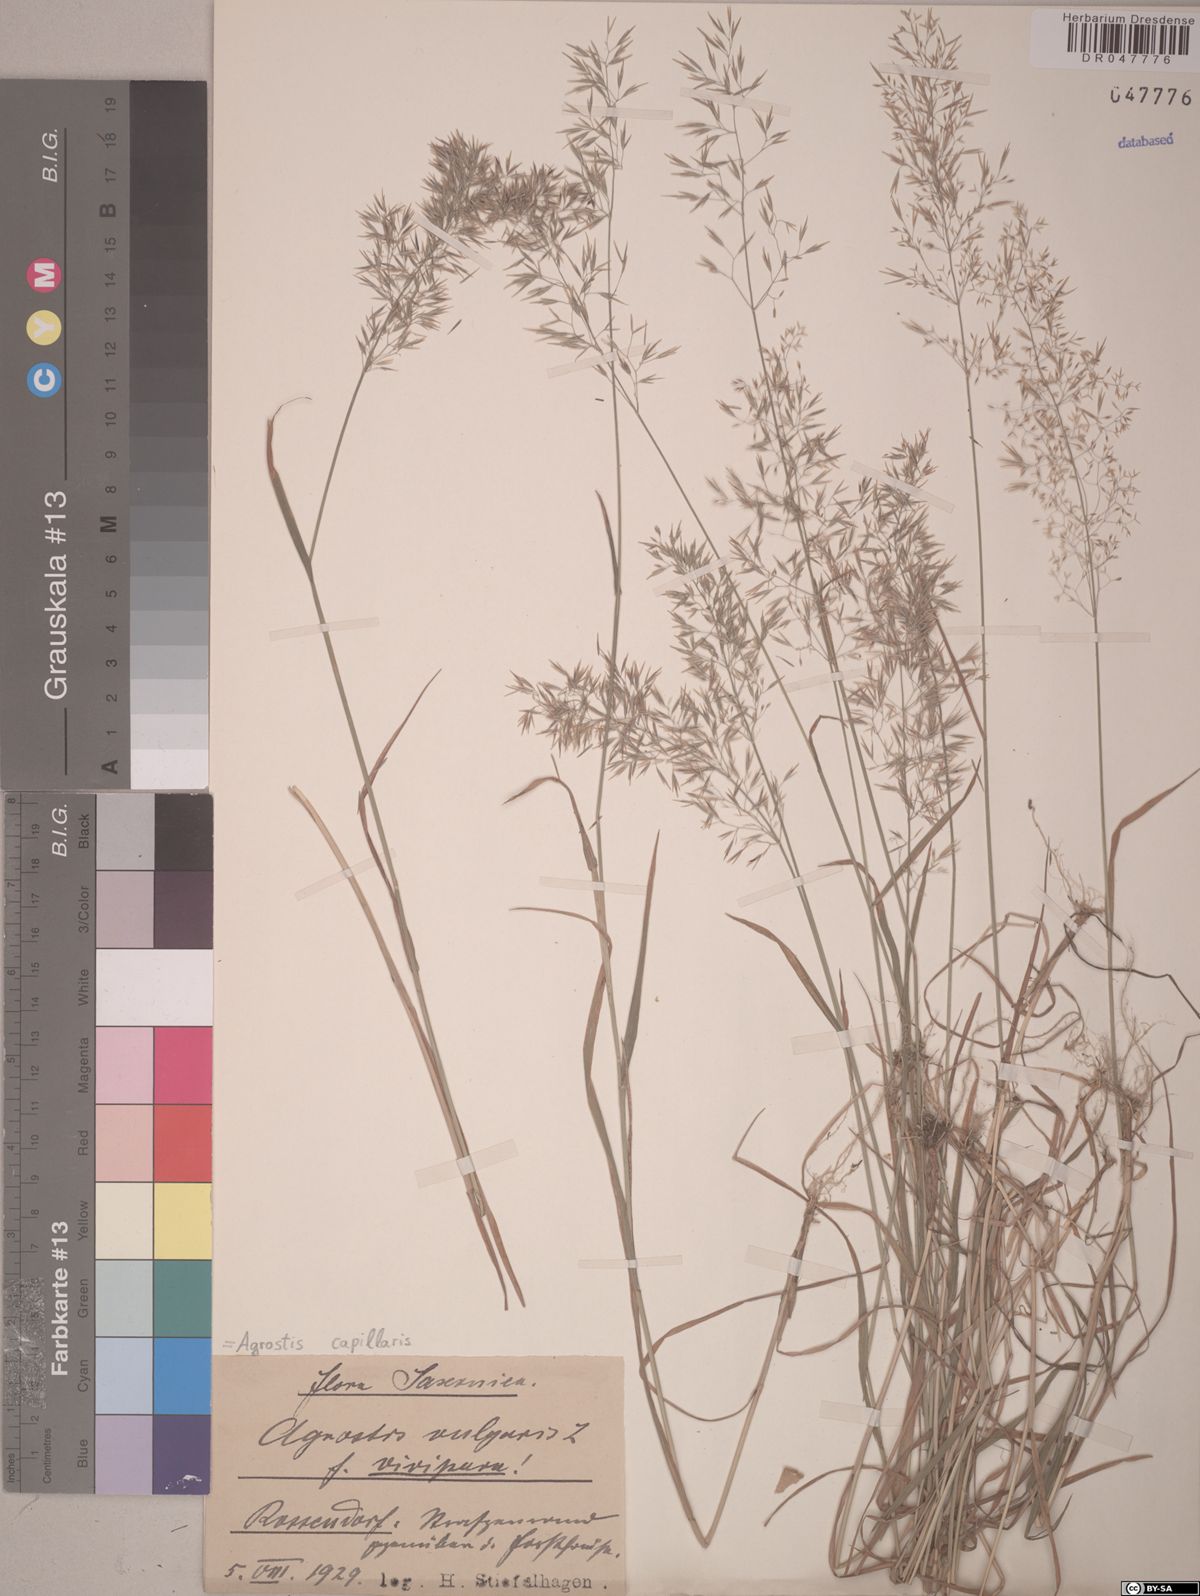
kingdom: Plantae
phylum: Tracheophyta
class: Liliopsida
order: Poales
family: Poaceae
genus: Agrostis
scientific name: Agrostis capillaris
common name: Colonial bentgrass
